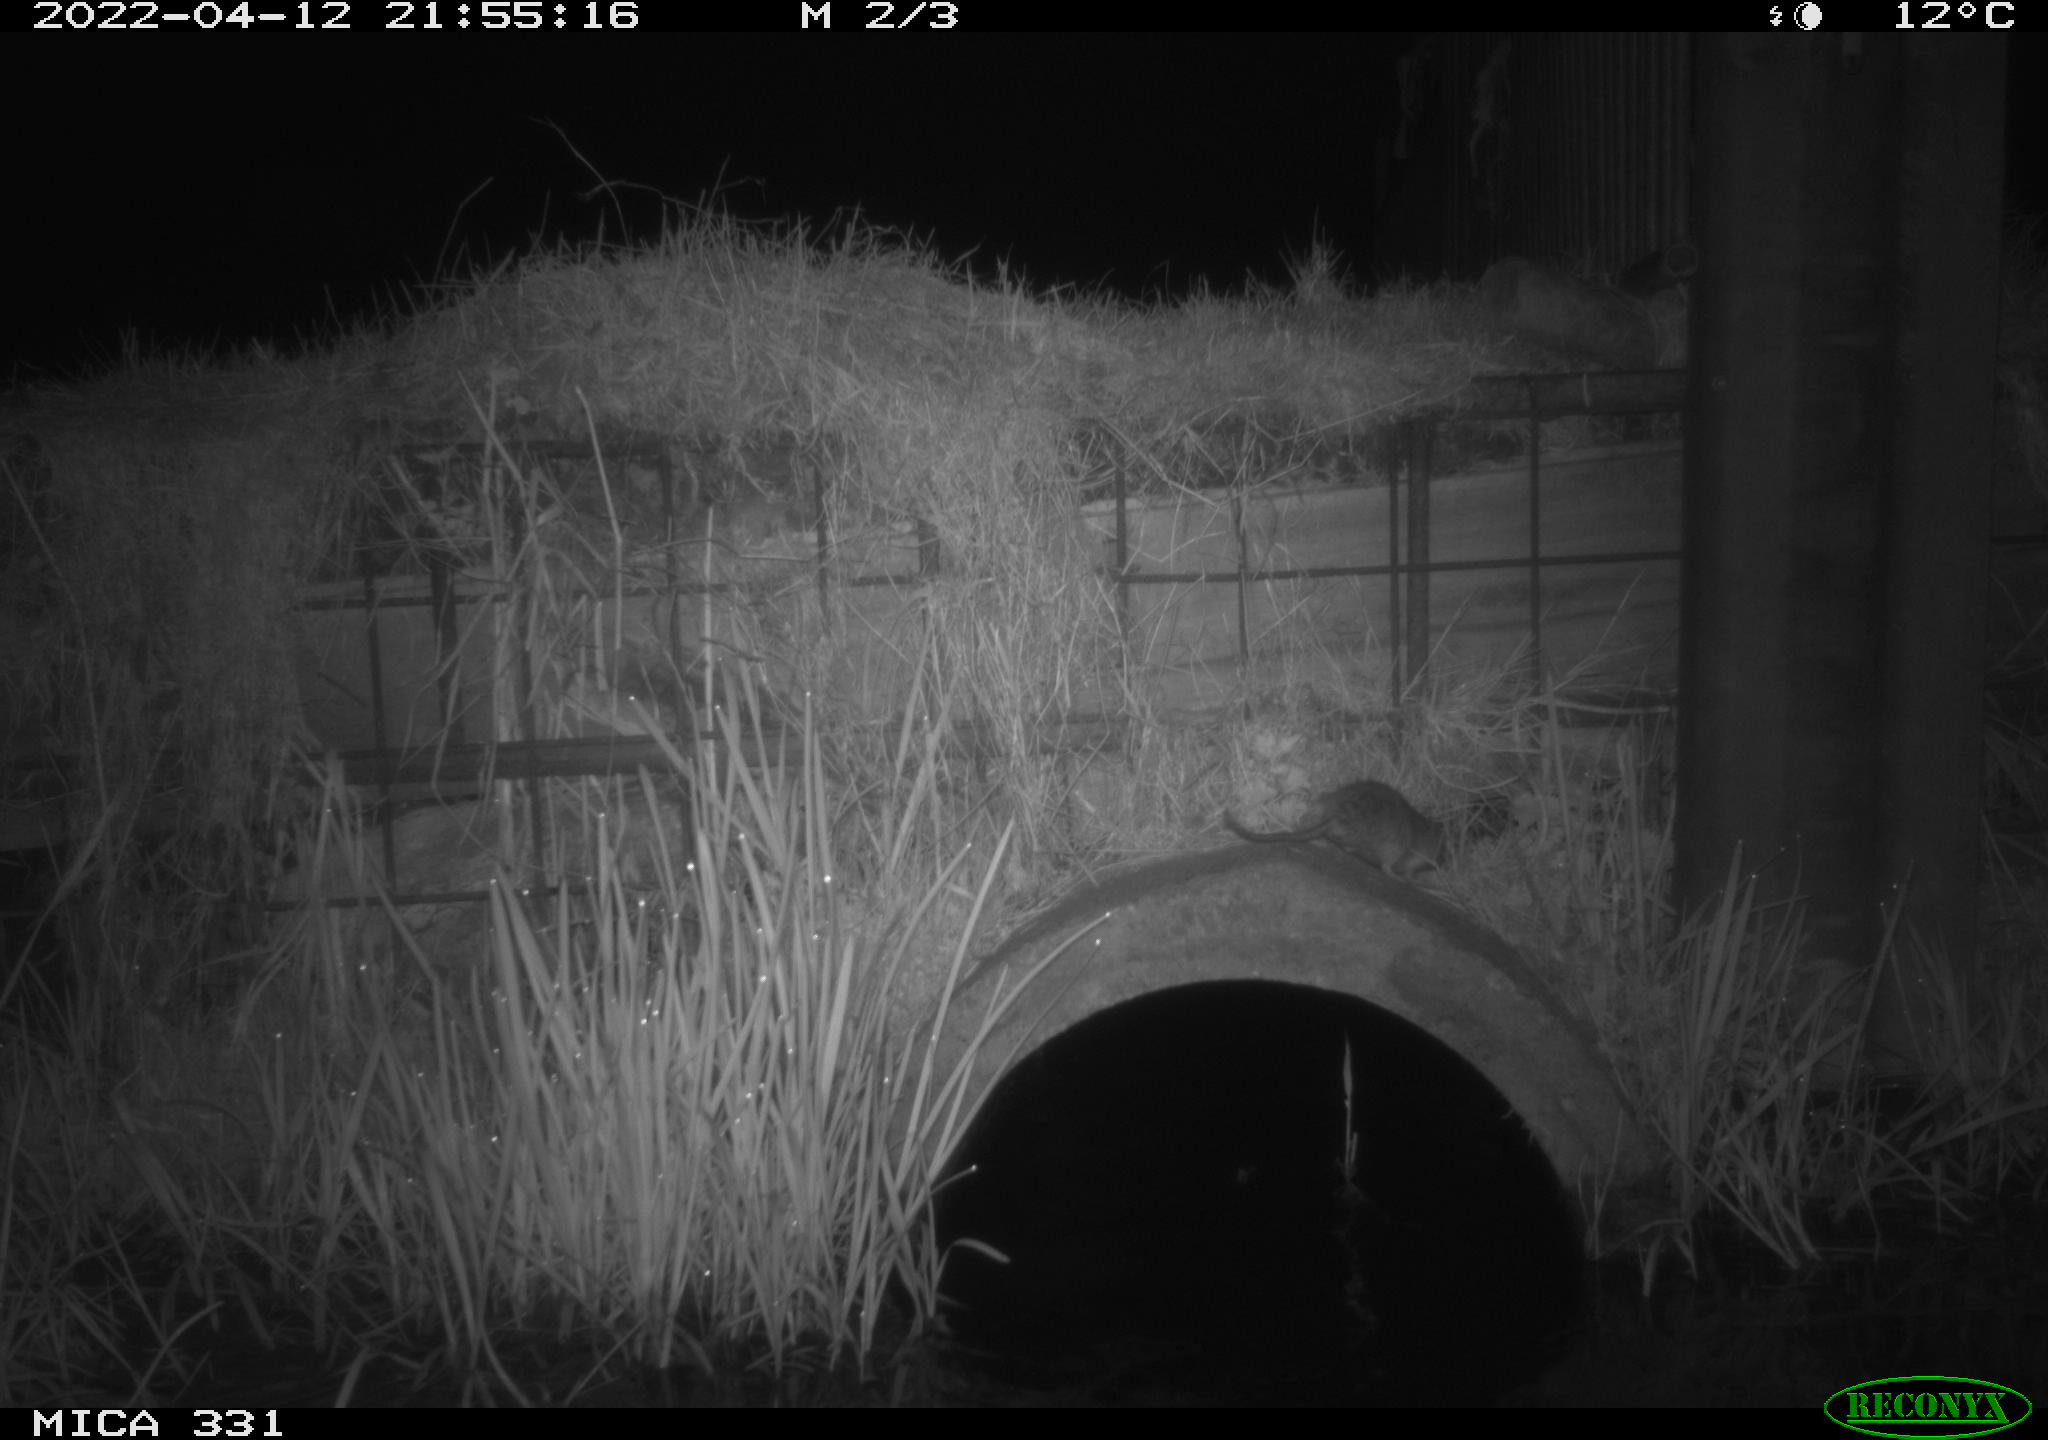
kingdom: Animalia
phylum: Chordata
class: Mammalia
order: Rodentia
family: Muridae
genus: Rattus
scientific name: Rattus norvegicus
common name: Brown rat
